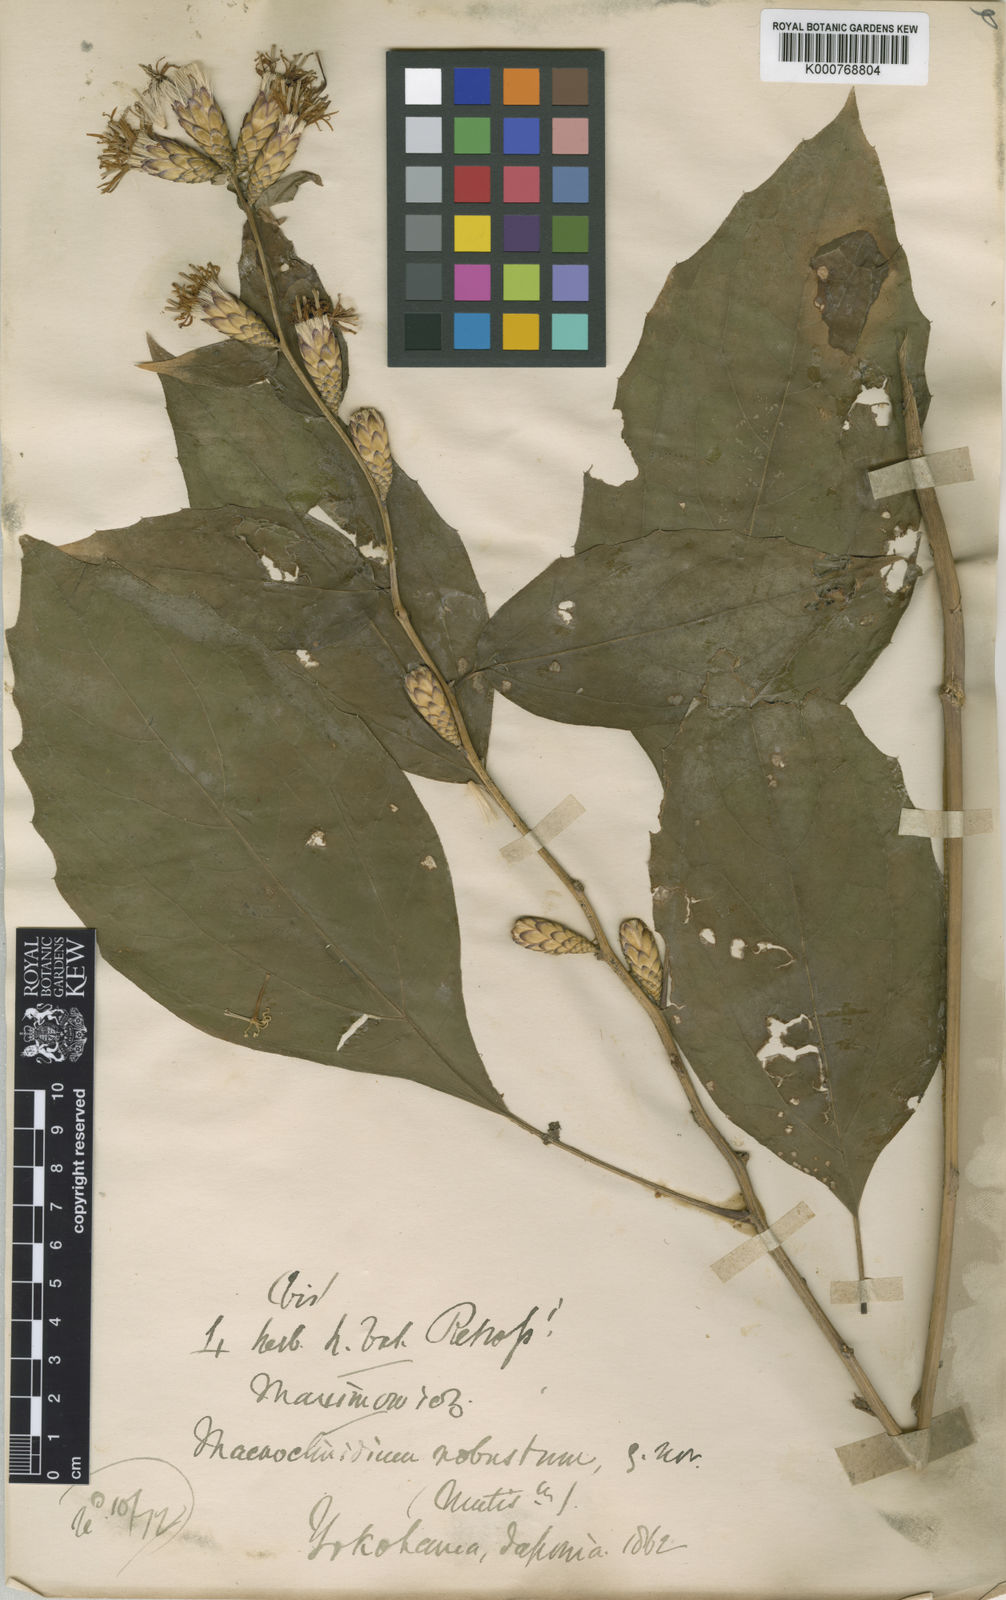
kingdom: Plantae
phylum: Tracheophyta
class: Magnoliopsida
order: Asterales
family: Asteraceae
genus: Pertya
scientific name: Pertya robusta
